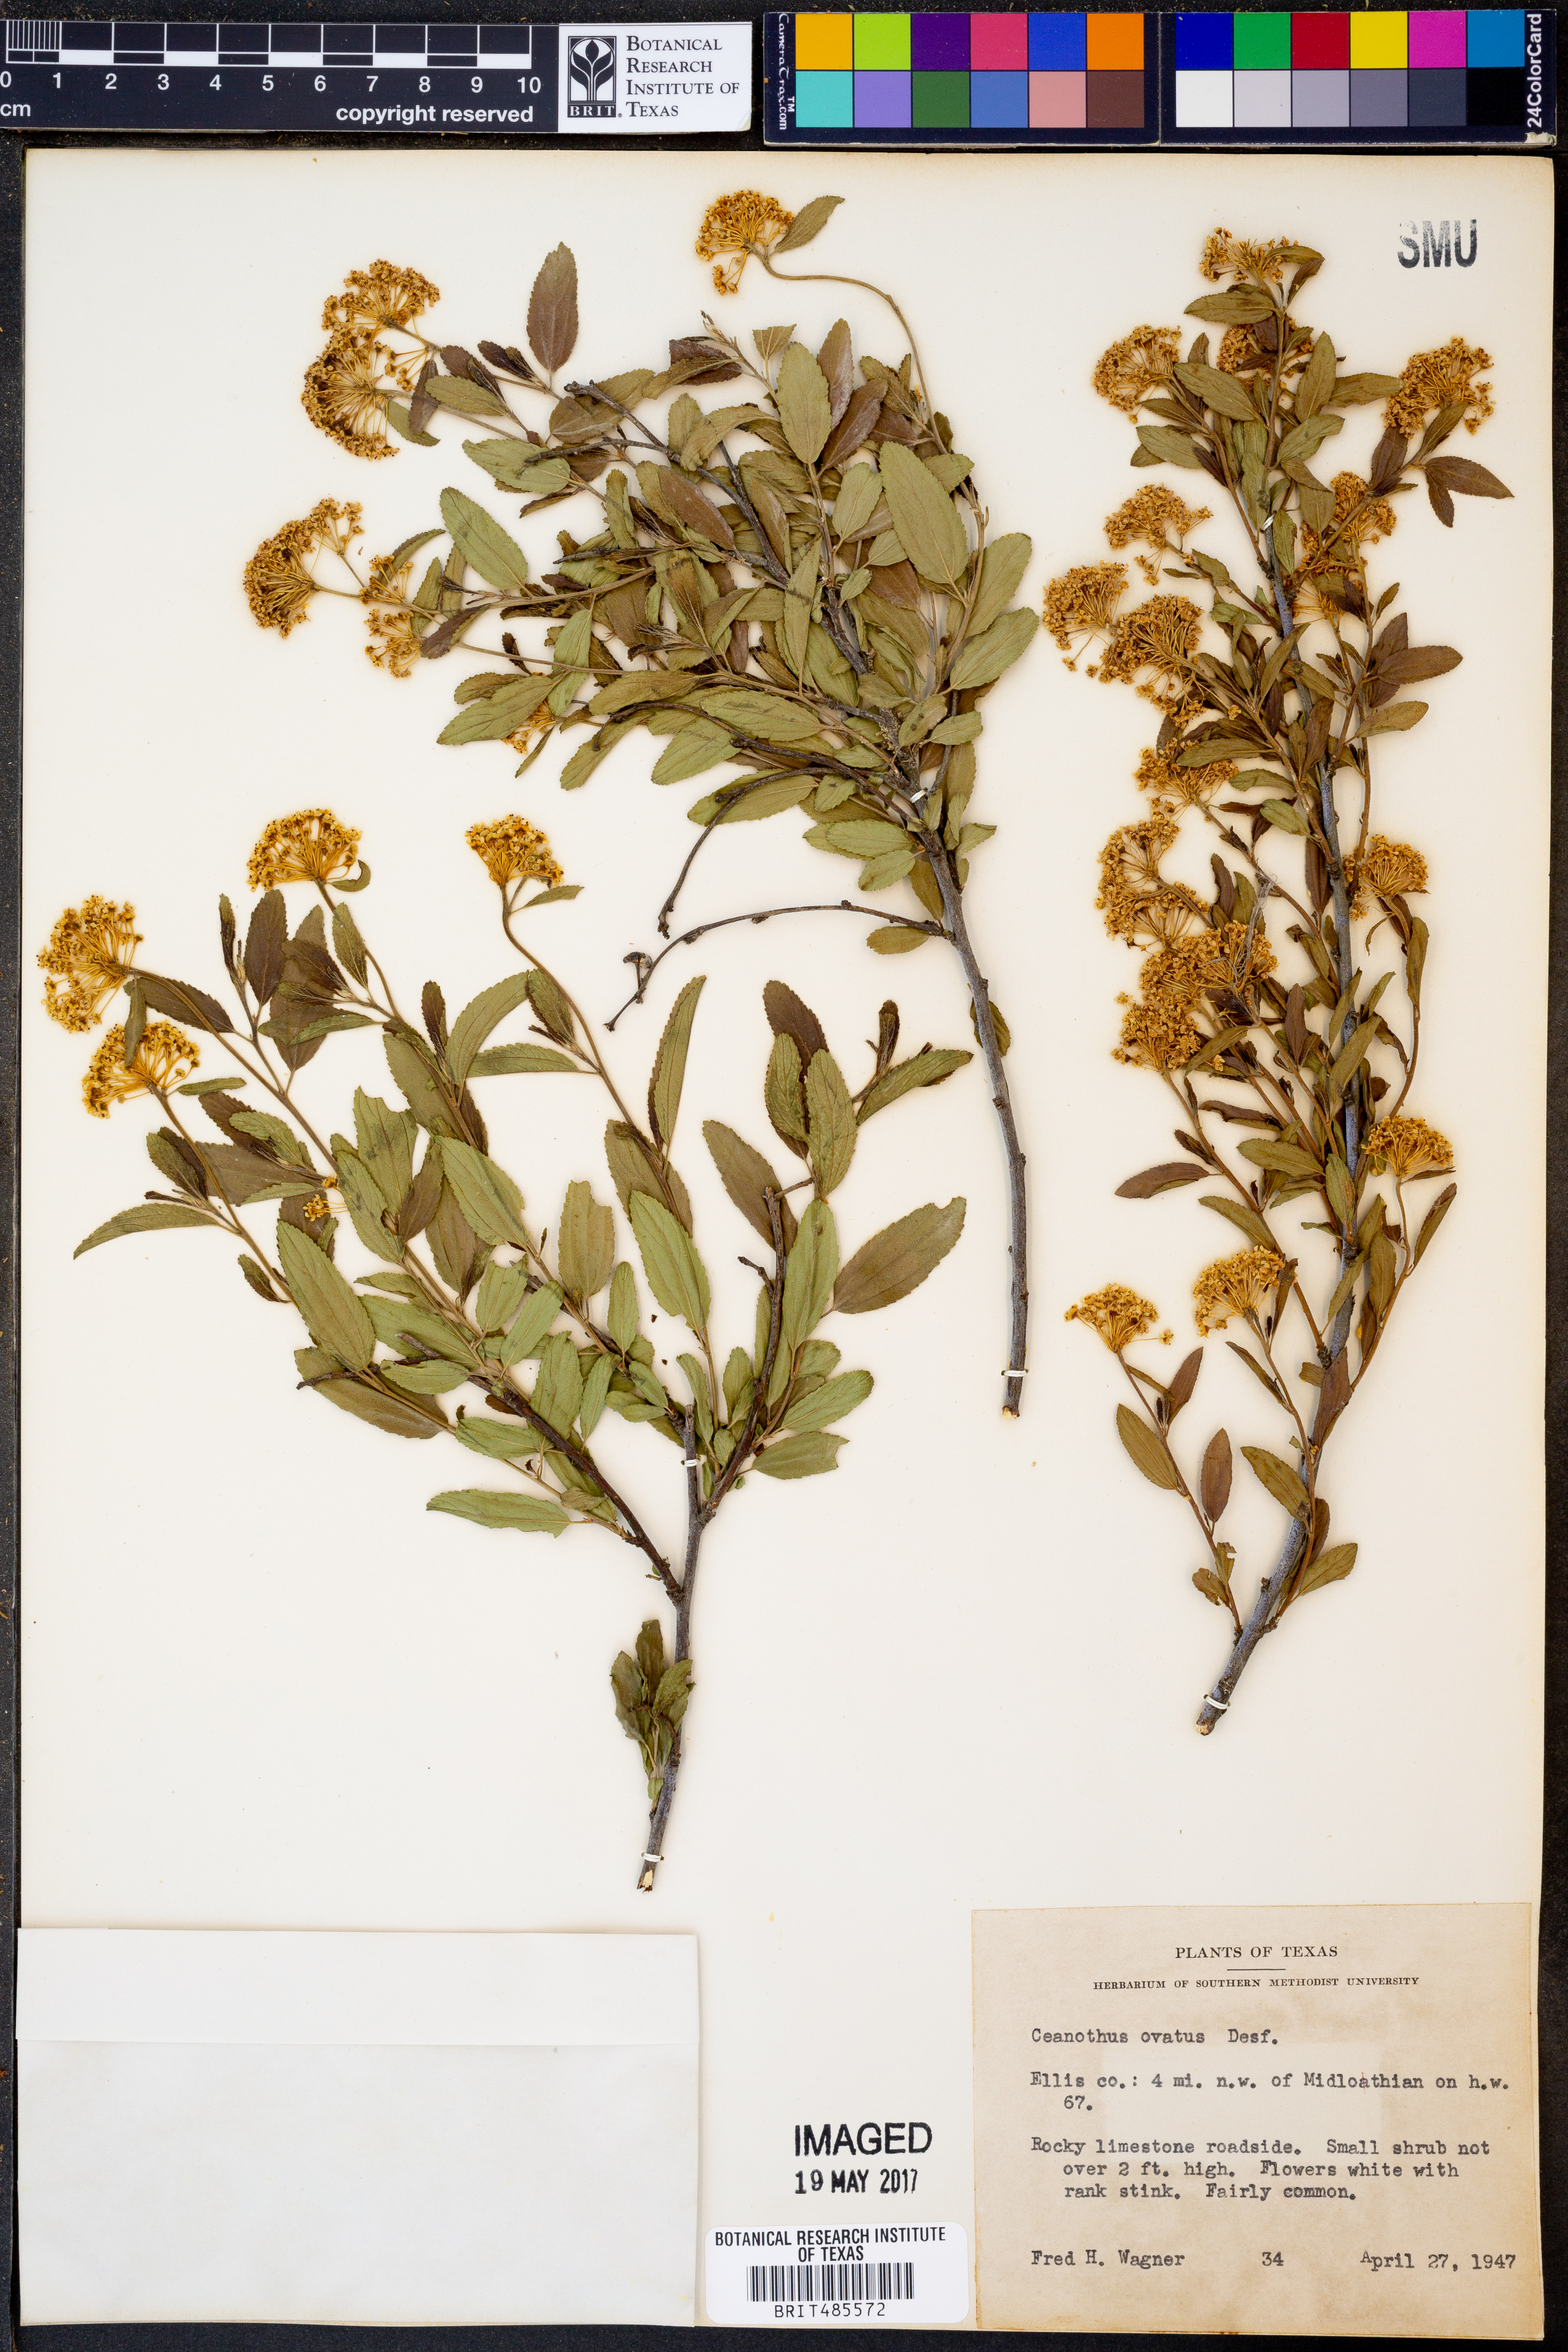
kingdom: Plantae
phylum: Tracheophyta
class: Magnoliopsida
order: Rosales
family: Rhamnaceae
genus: Ceanothus
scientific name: Ceanothus herbaceus
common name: Inland ceanothus
